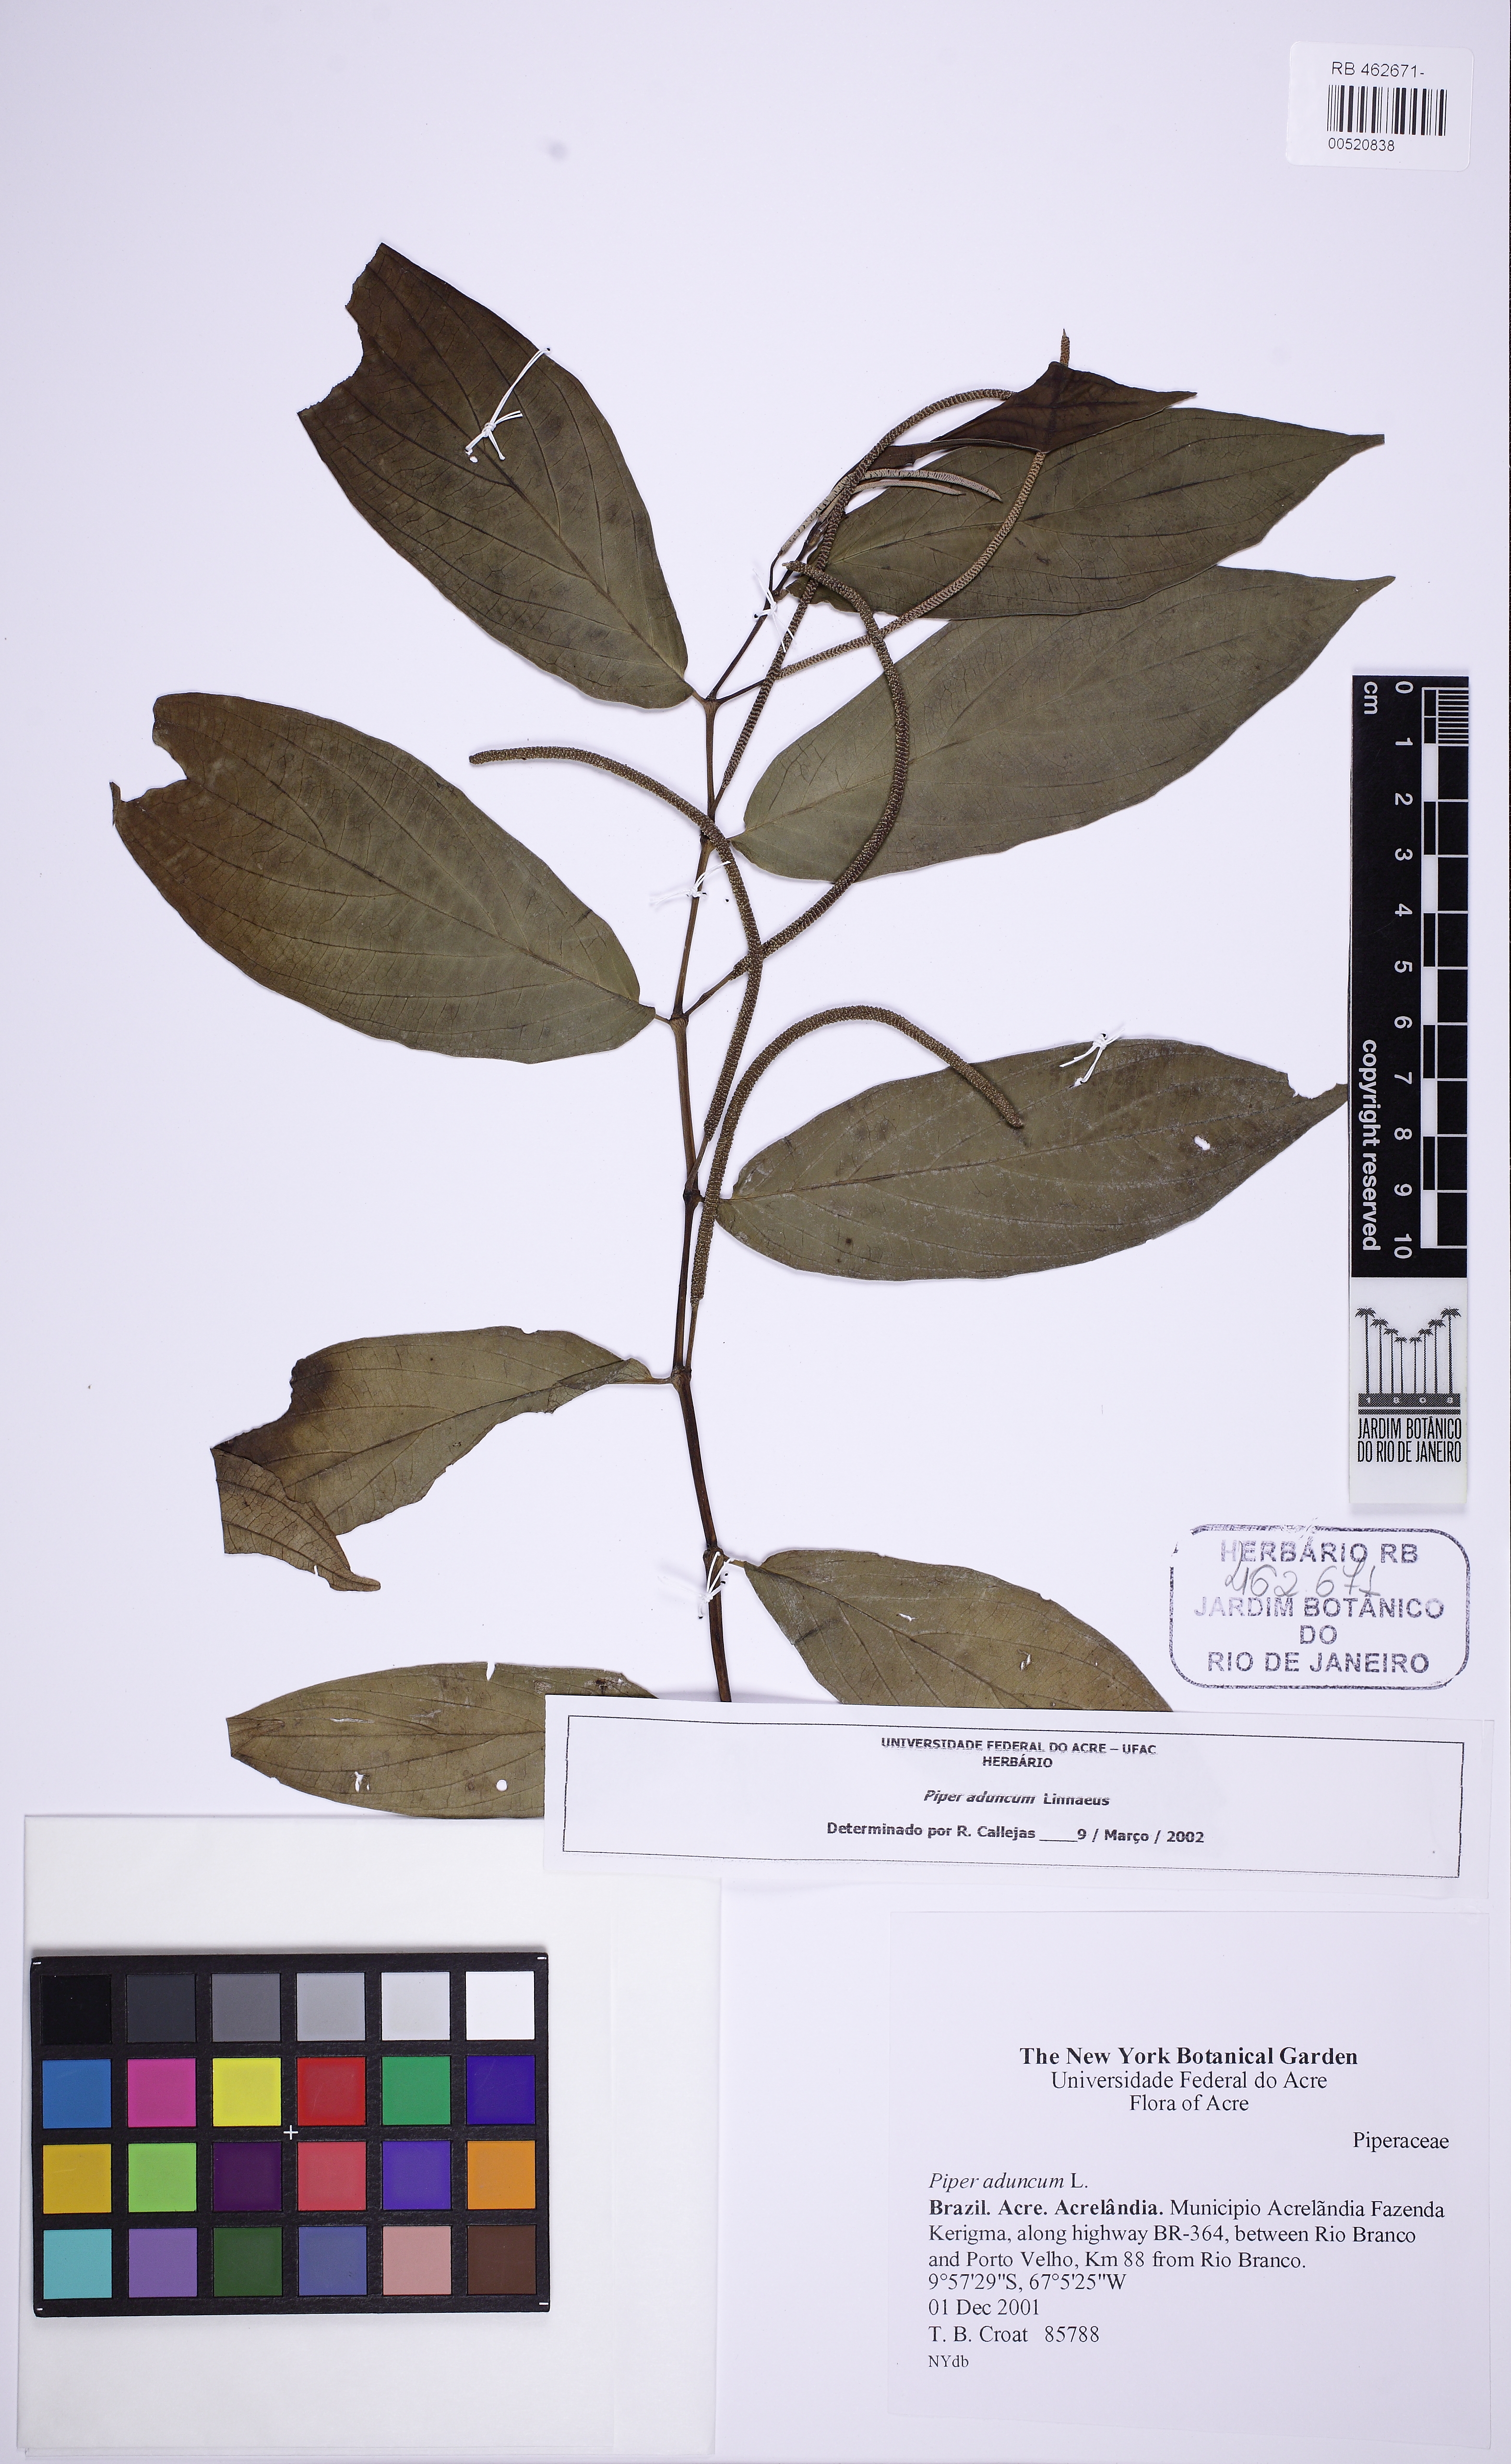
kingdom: Plantae
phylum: Tracheophyta
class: Magnoliopsida
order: Piperales
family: Piperaceae
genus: Piper
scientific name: Piper aduncum
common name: Spiked pepper
